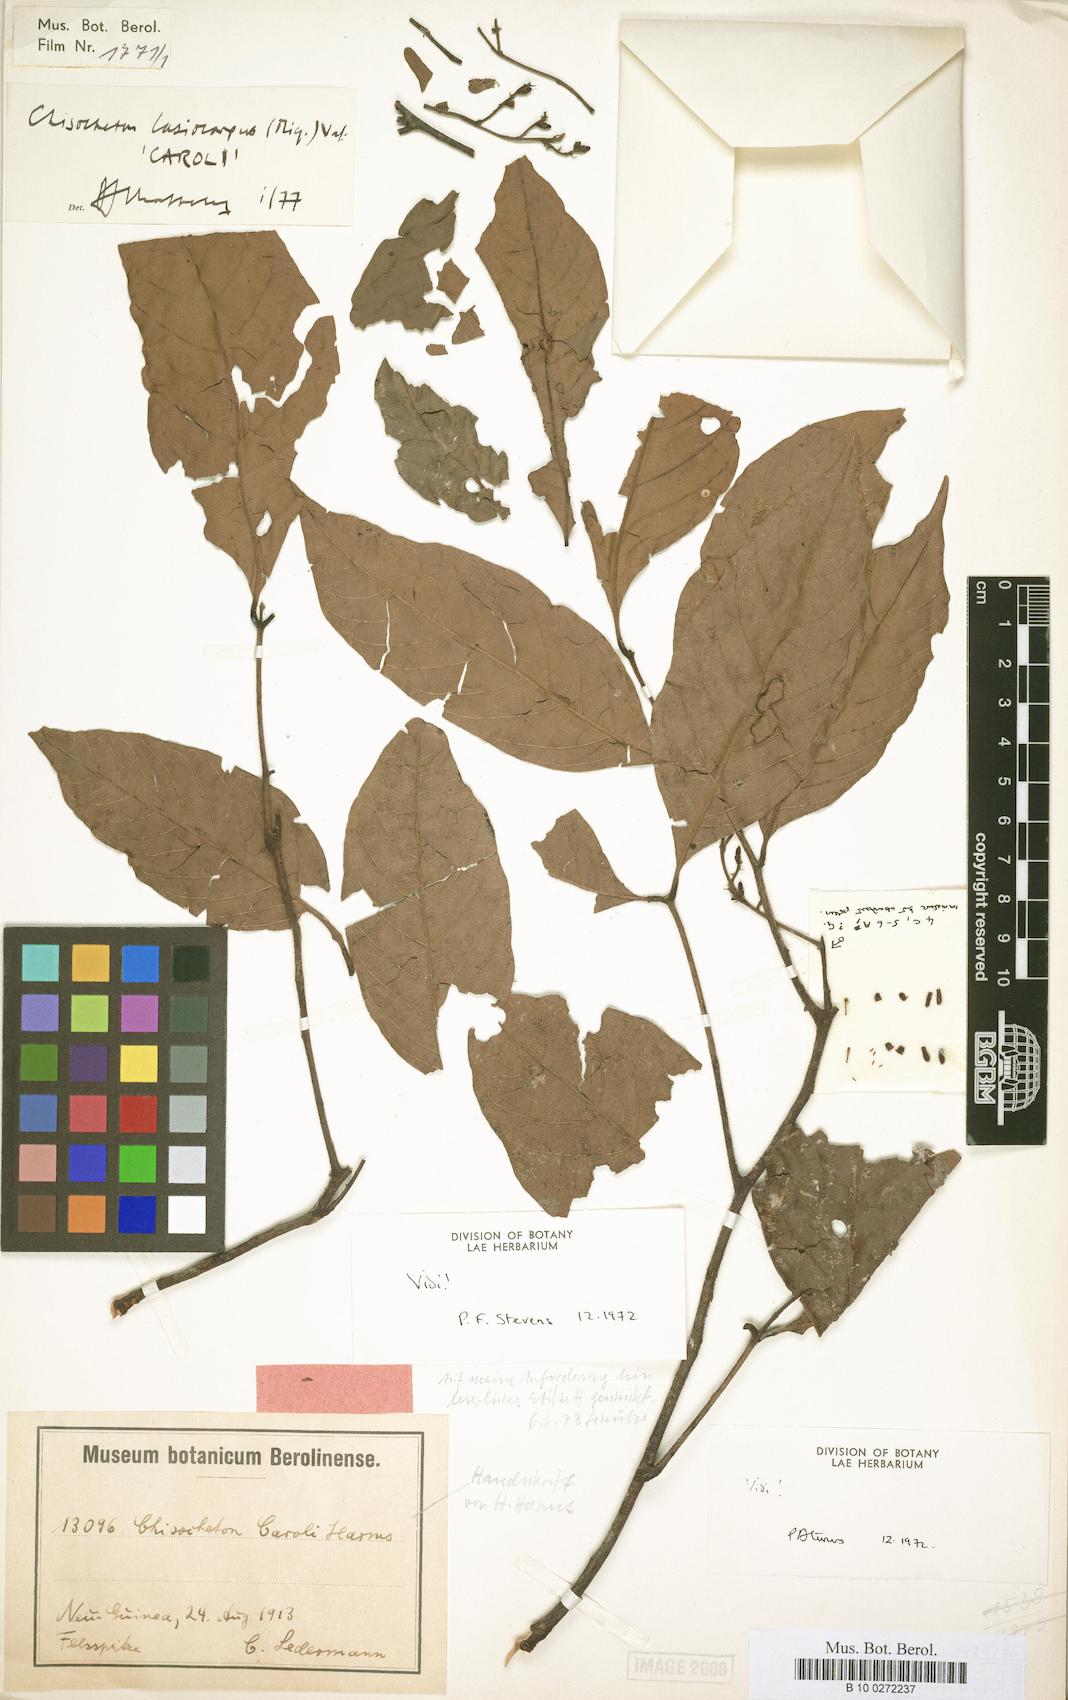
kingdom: Plantae
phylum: Tracheophyta
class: Magnoliopsida
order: Sapindales
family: Meliaceae
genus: Chisocheton
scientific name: Chisocheton lasiocarpum
